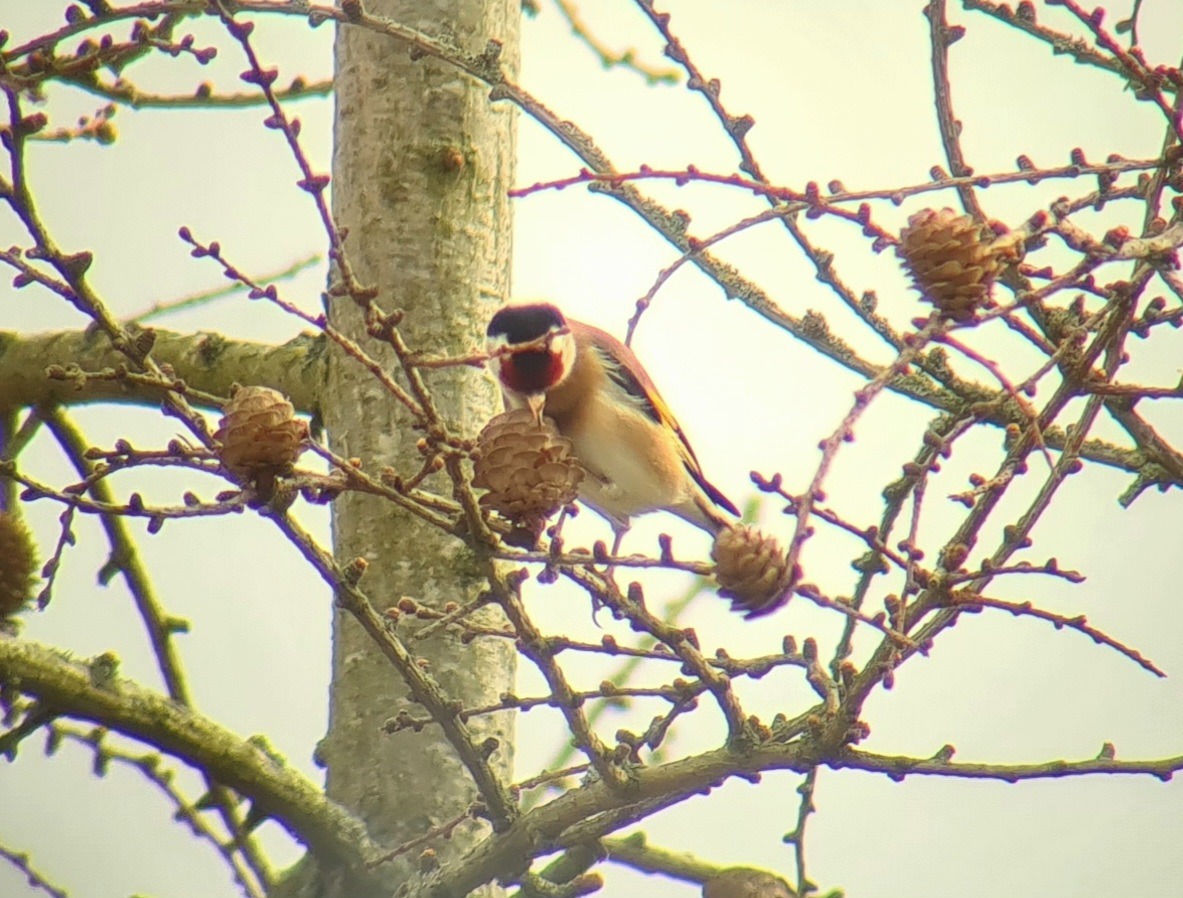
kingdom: Animalia
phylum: Chordata
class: Aves
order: Passeriformes
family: Fringillidae
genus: Carduelis
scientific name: Carduelis carduelis
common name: Stillits
